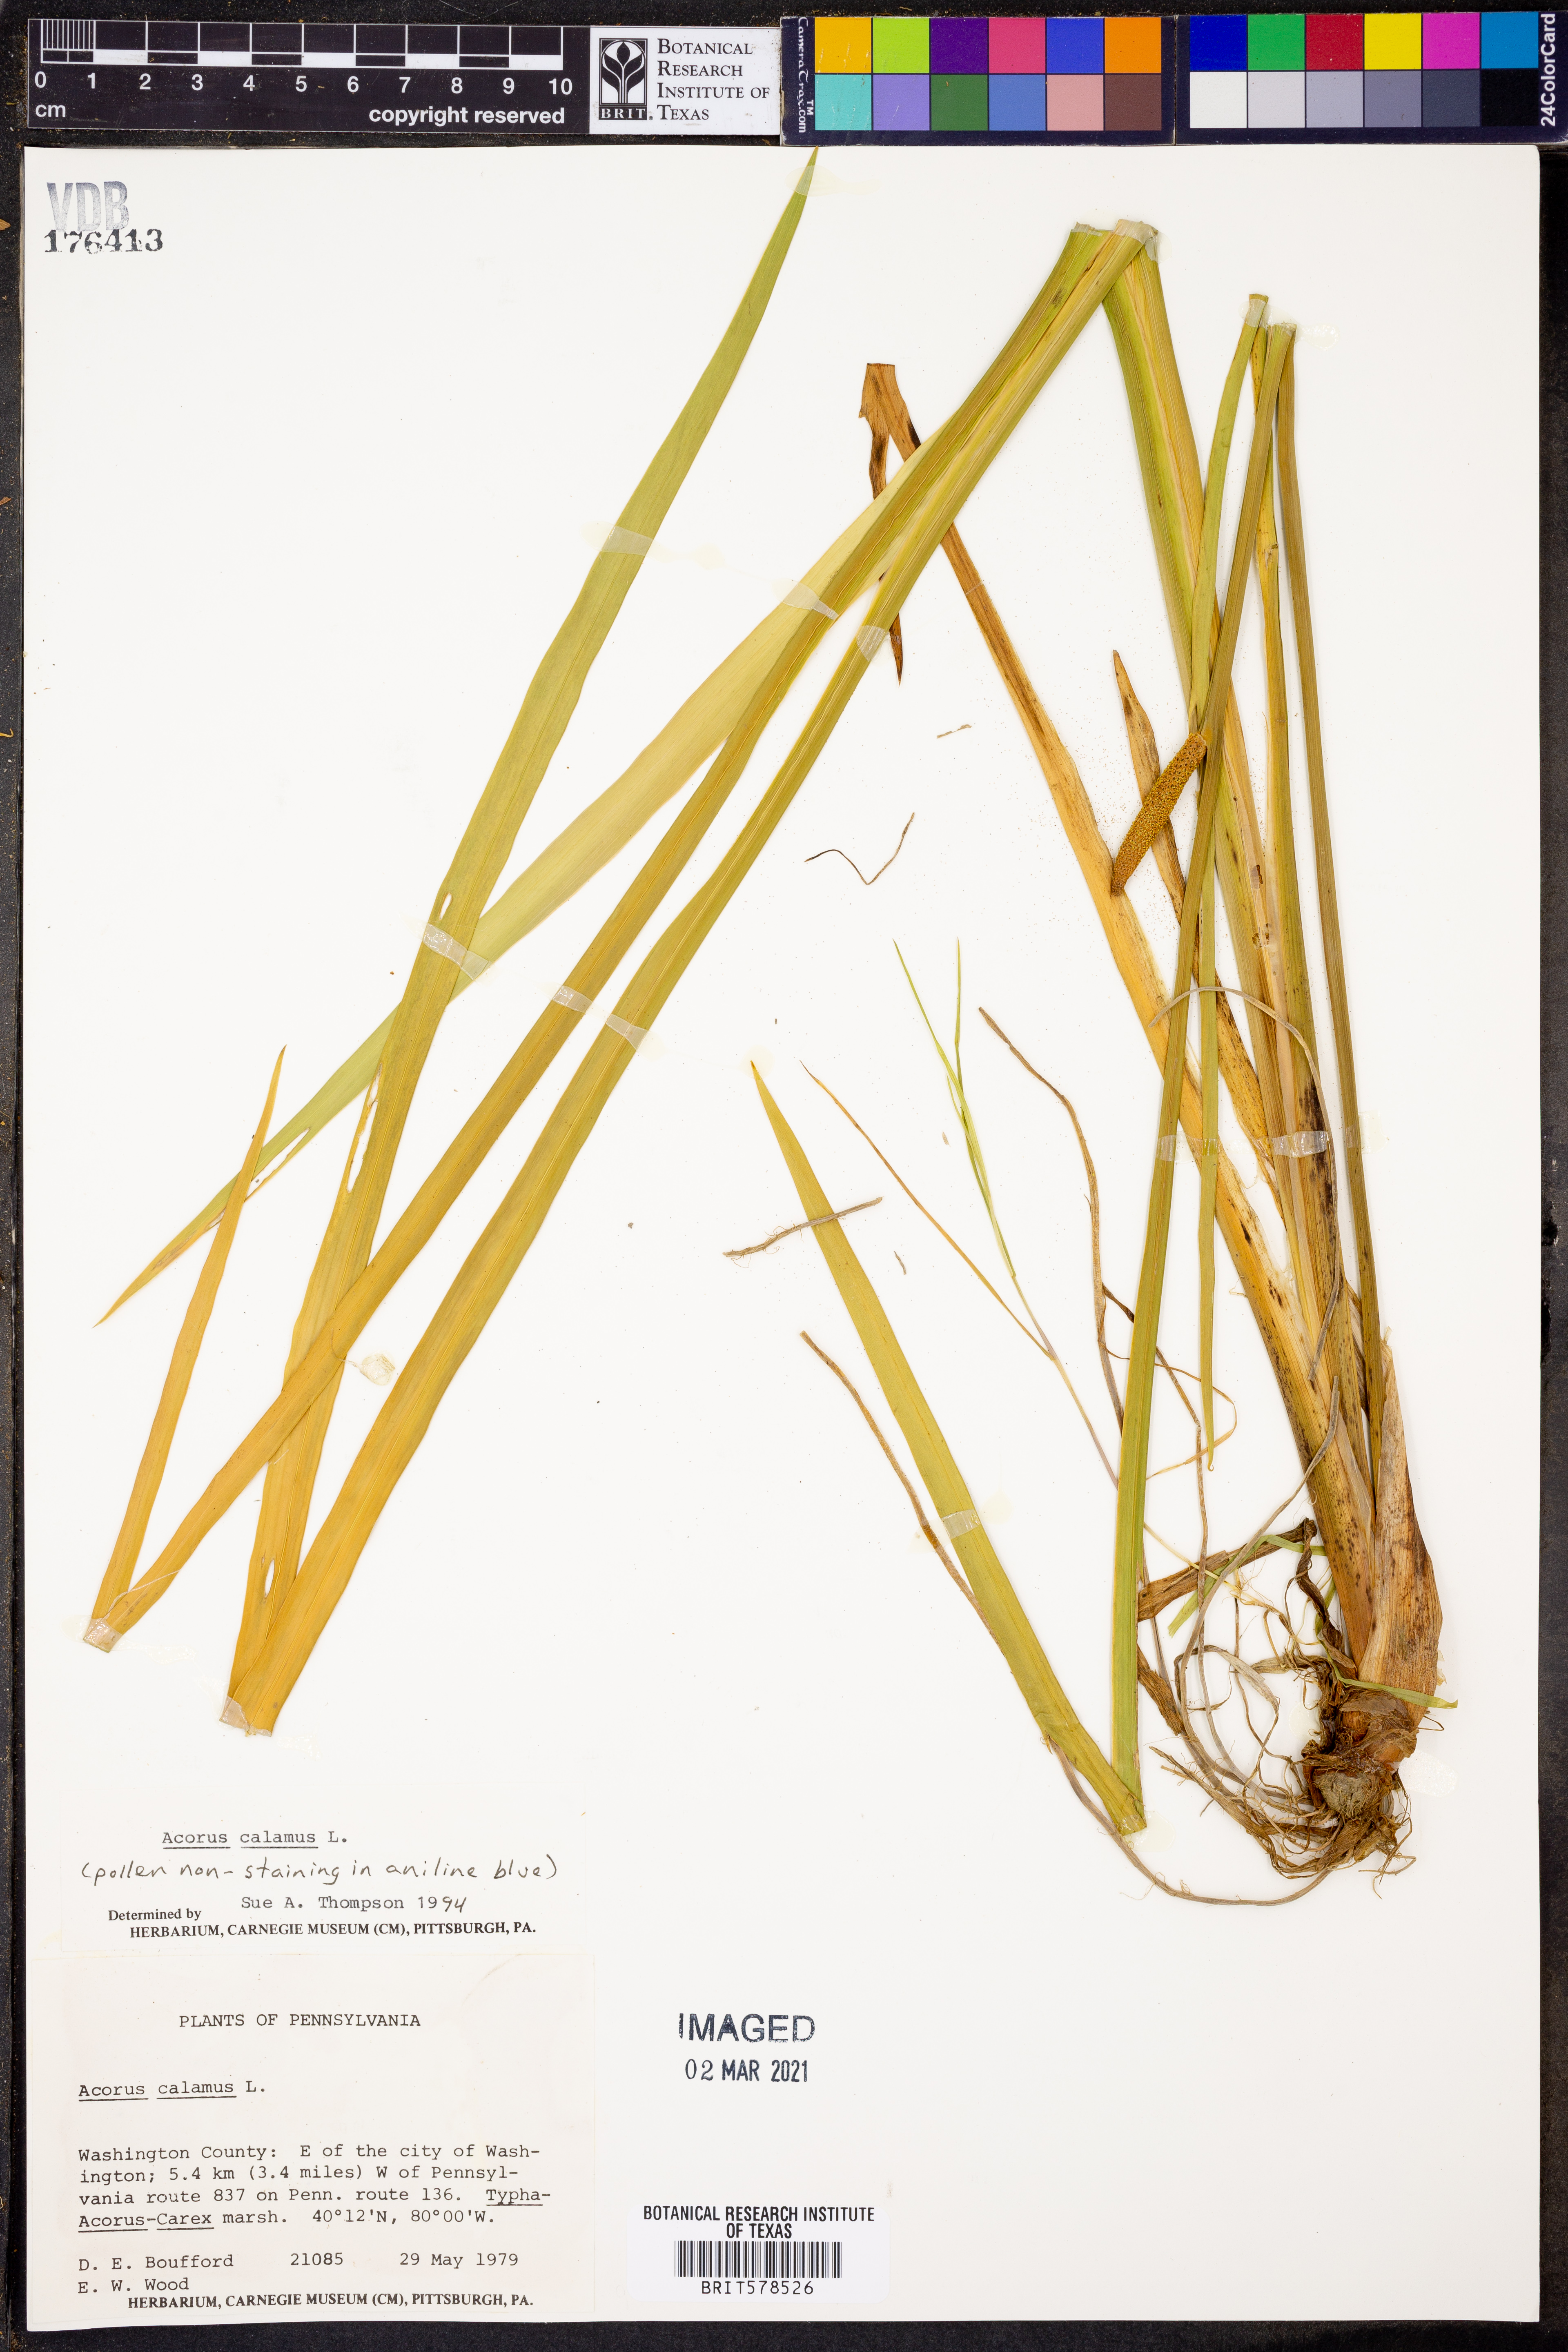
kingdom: Plantae
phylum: Tracheophyta
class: Liliopsida
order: Acorales
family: Acoraceae
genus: Acorus
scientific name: Acorus calamus
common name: Sweet-flag
